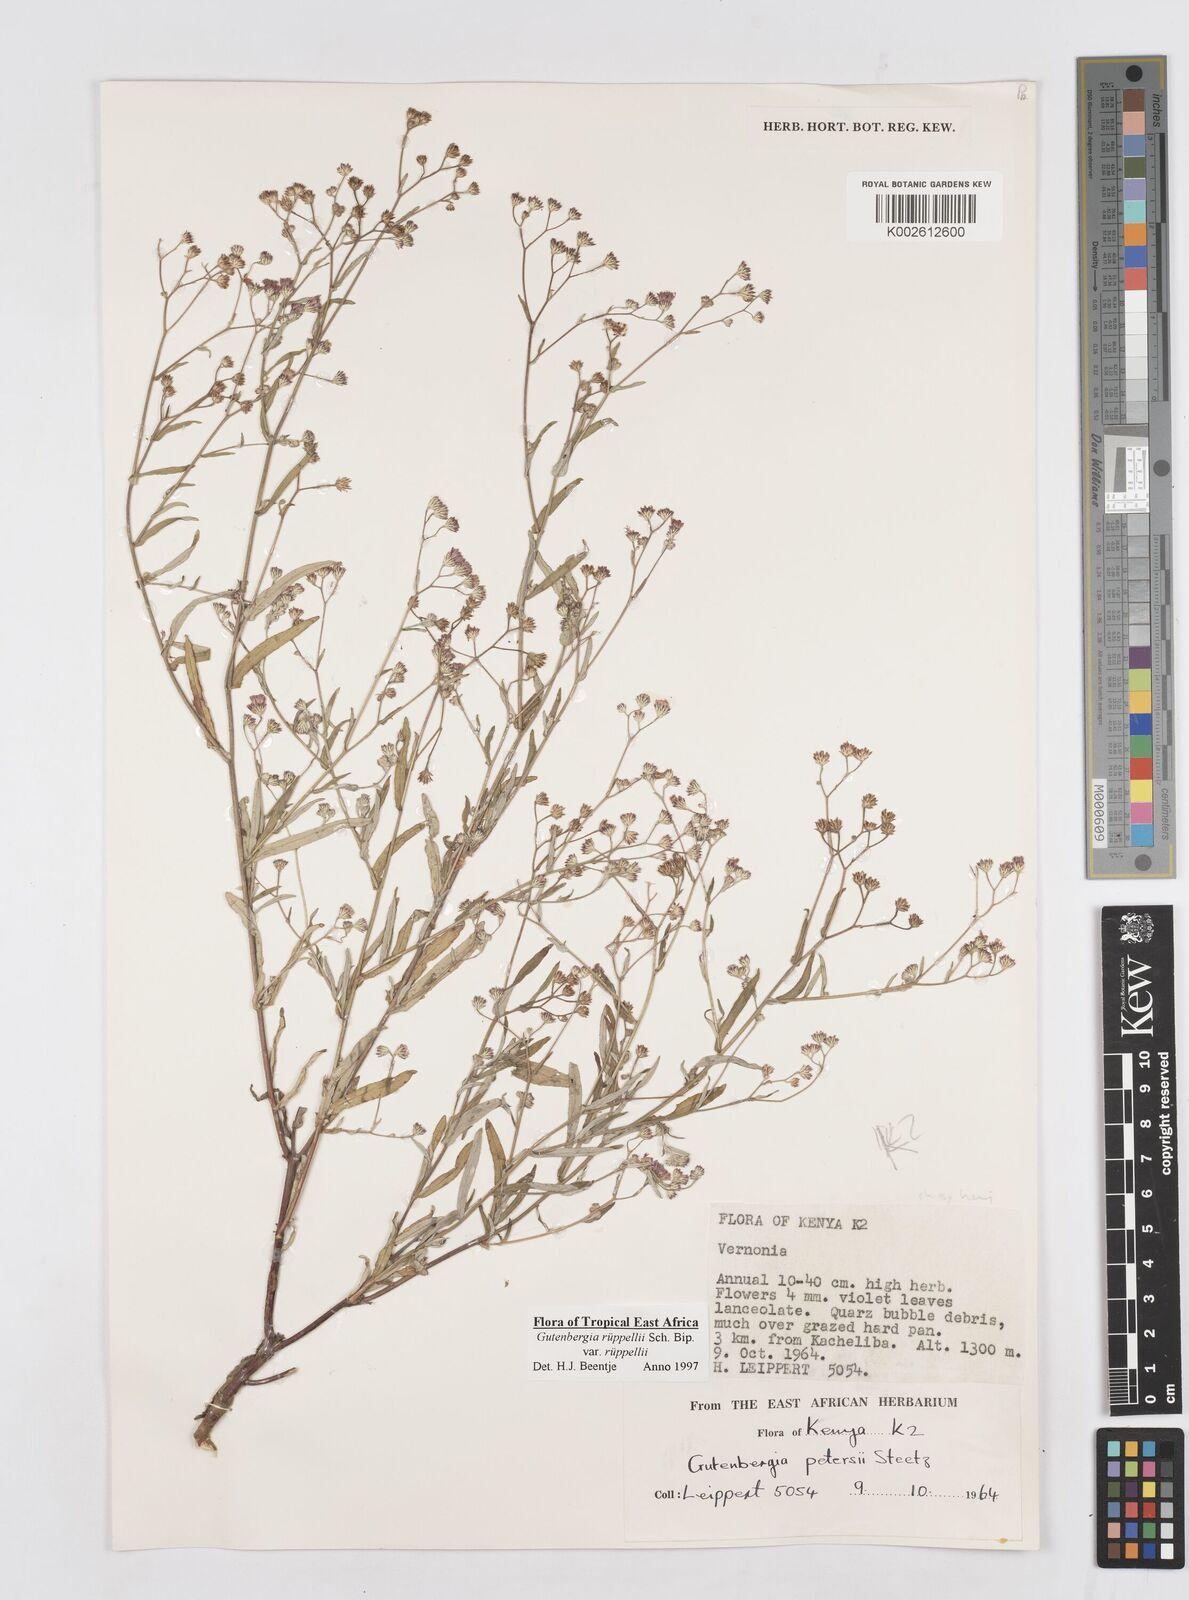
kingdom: Plantae
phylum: Tracheophyta
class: Magnoliopsida
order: Asterales
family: Asteraceae
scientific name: Asteraceae
